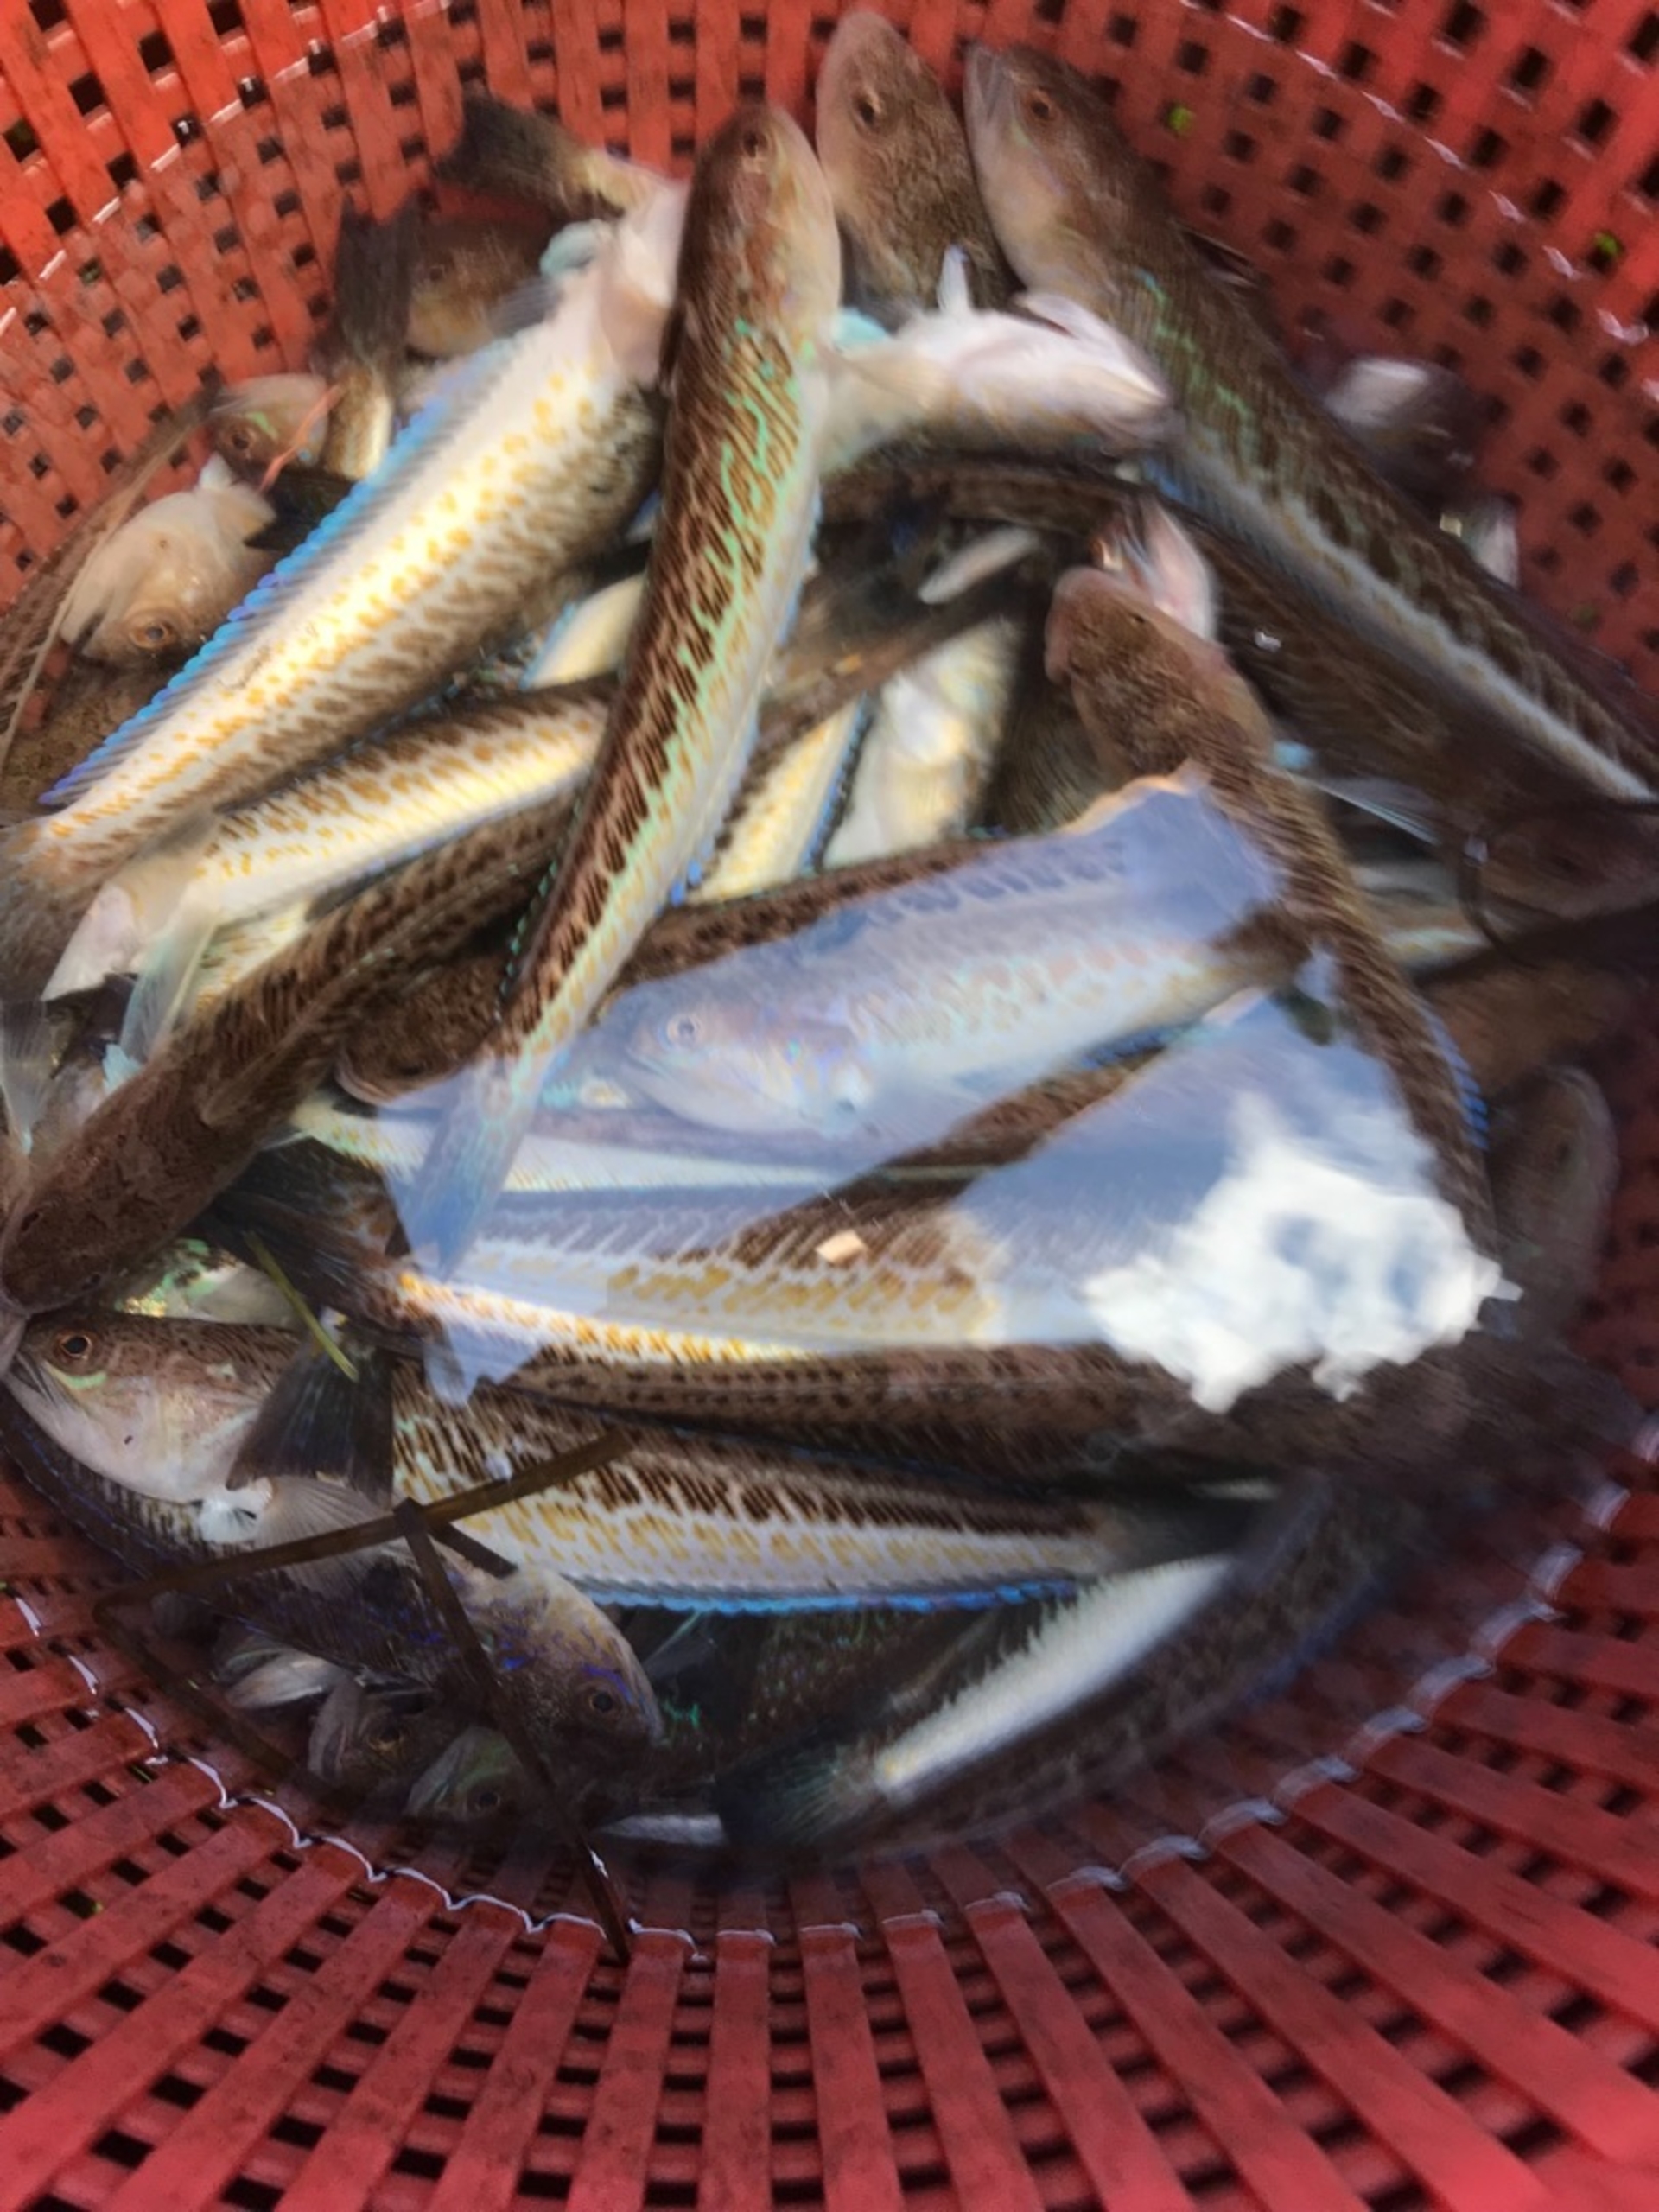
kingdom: Animalia
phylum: Chordata
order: Perciformes
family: Trachinidae
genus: Trachinus
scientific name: Trachinus draco
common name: Almindelig fjæsing
